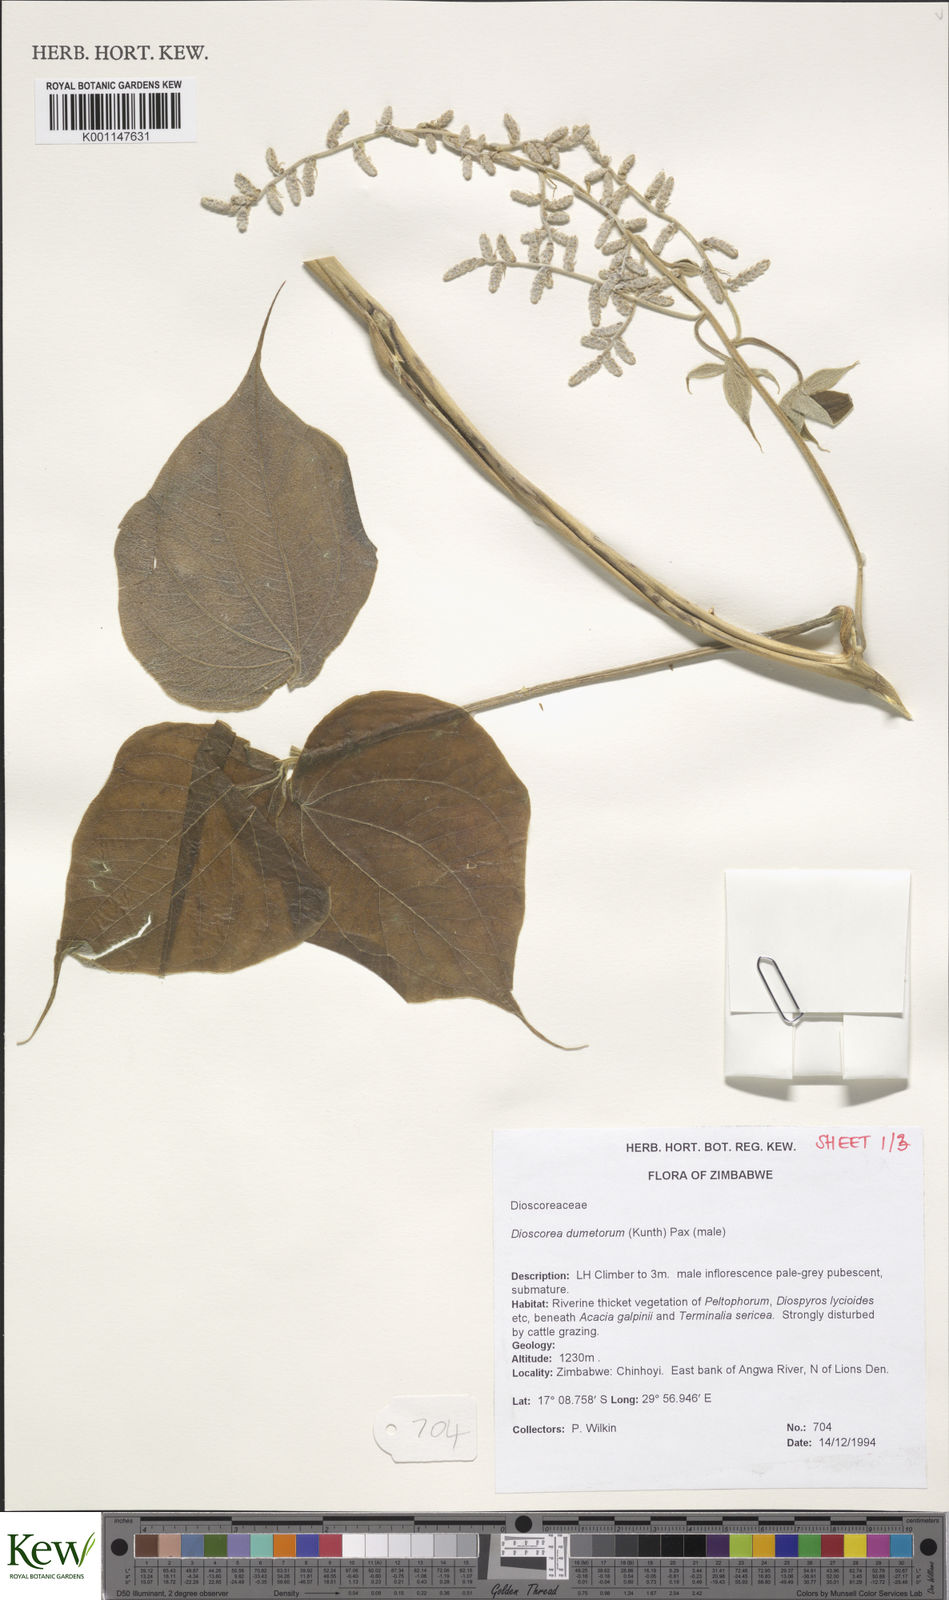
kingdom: Plantae
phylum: Tracheophyta
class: Liliopsida
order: Dioscoreales
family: Dioscoreaceae
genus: Dioscorea
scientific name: Dioscorea dumetorum
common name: African bitter yam
